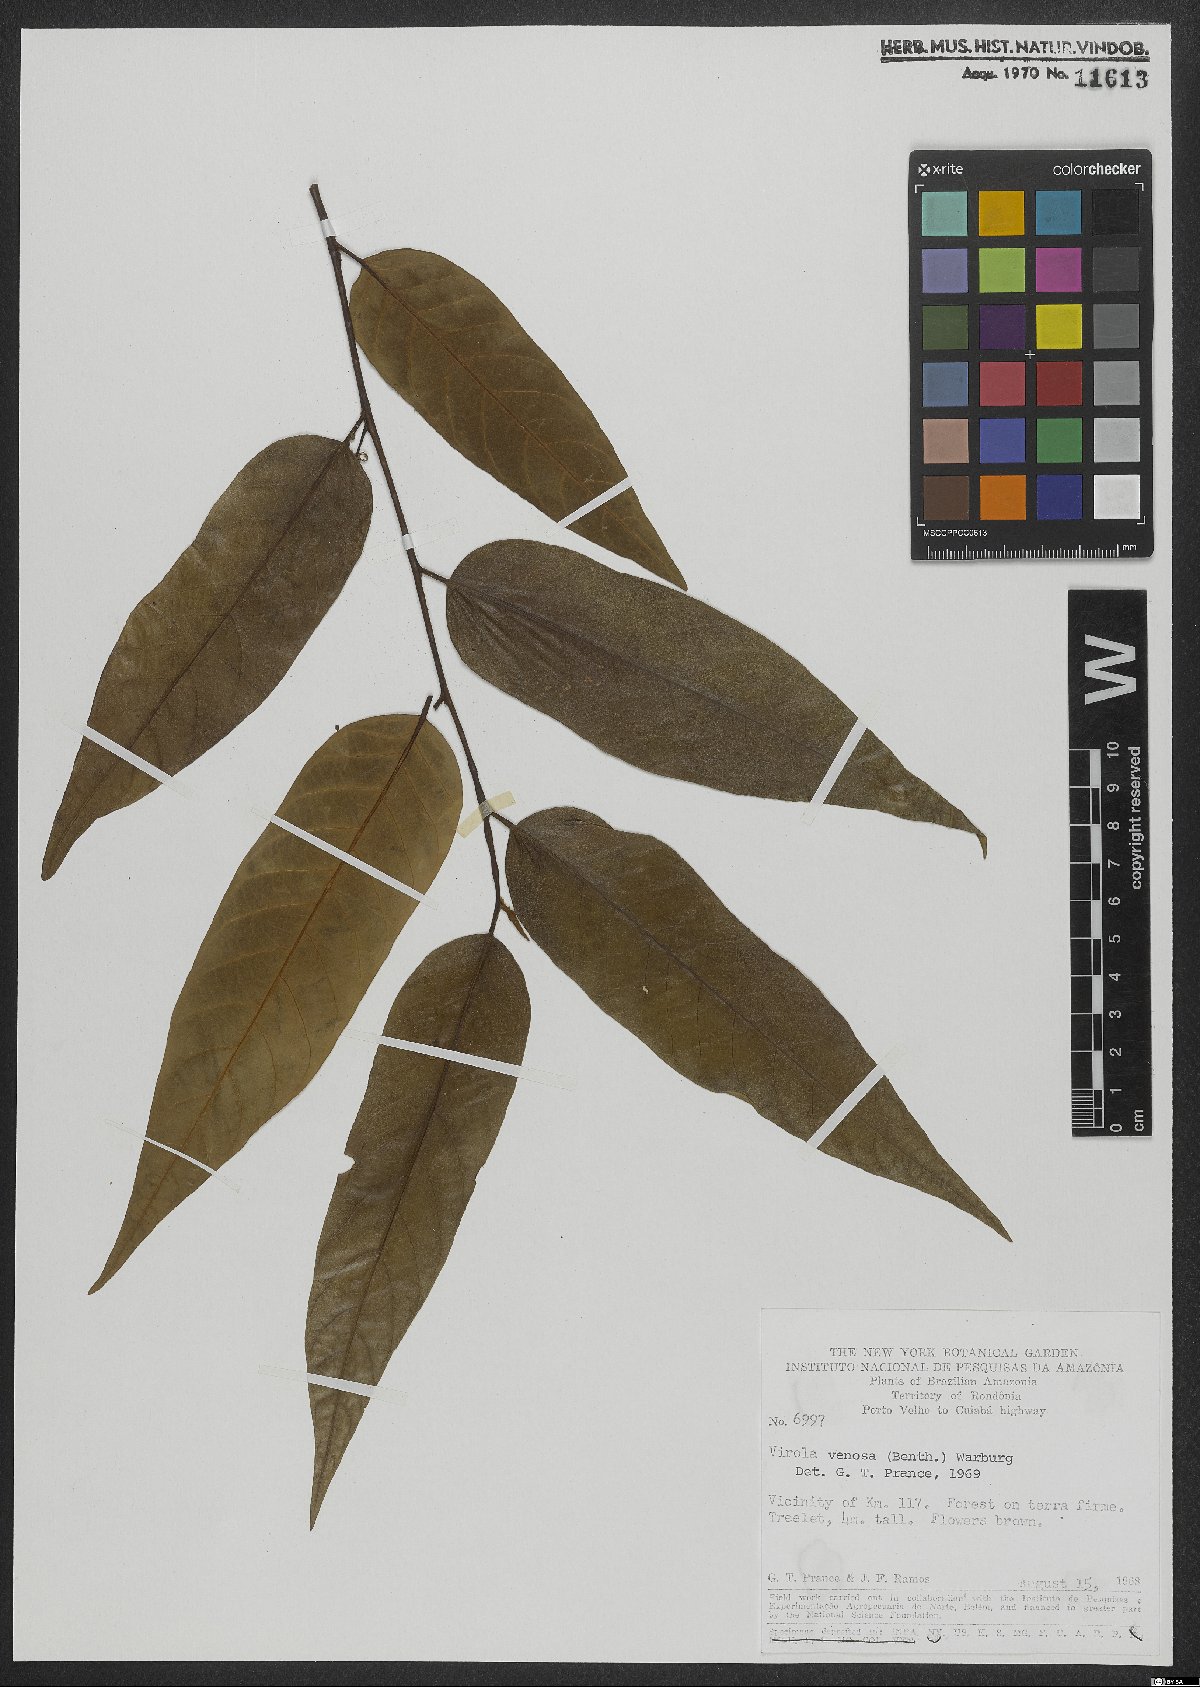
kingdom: Plantae
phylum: Tracheophyta
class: Magnoliopsida
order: Magnoliales
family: Myristicaceae
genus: Virola
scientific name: Virola venosa
